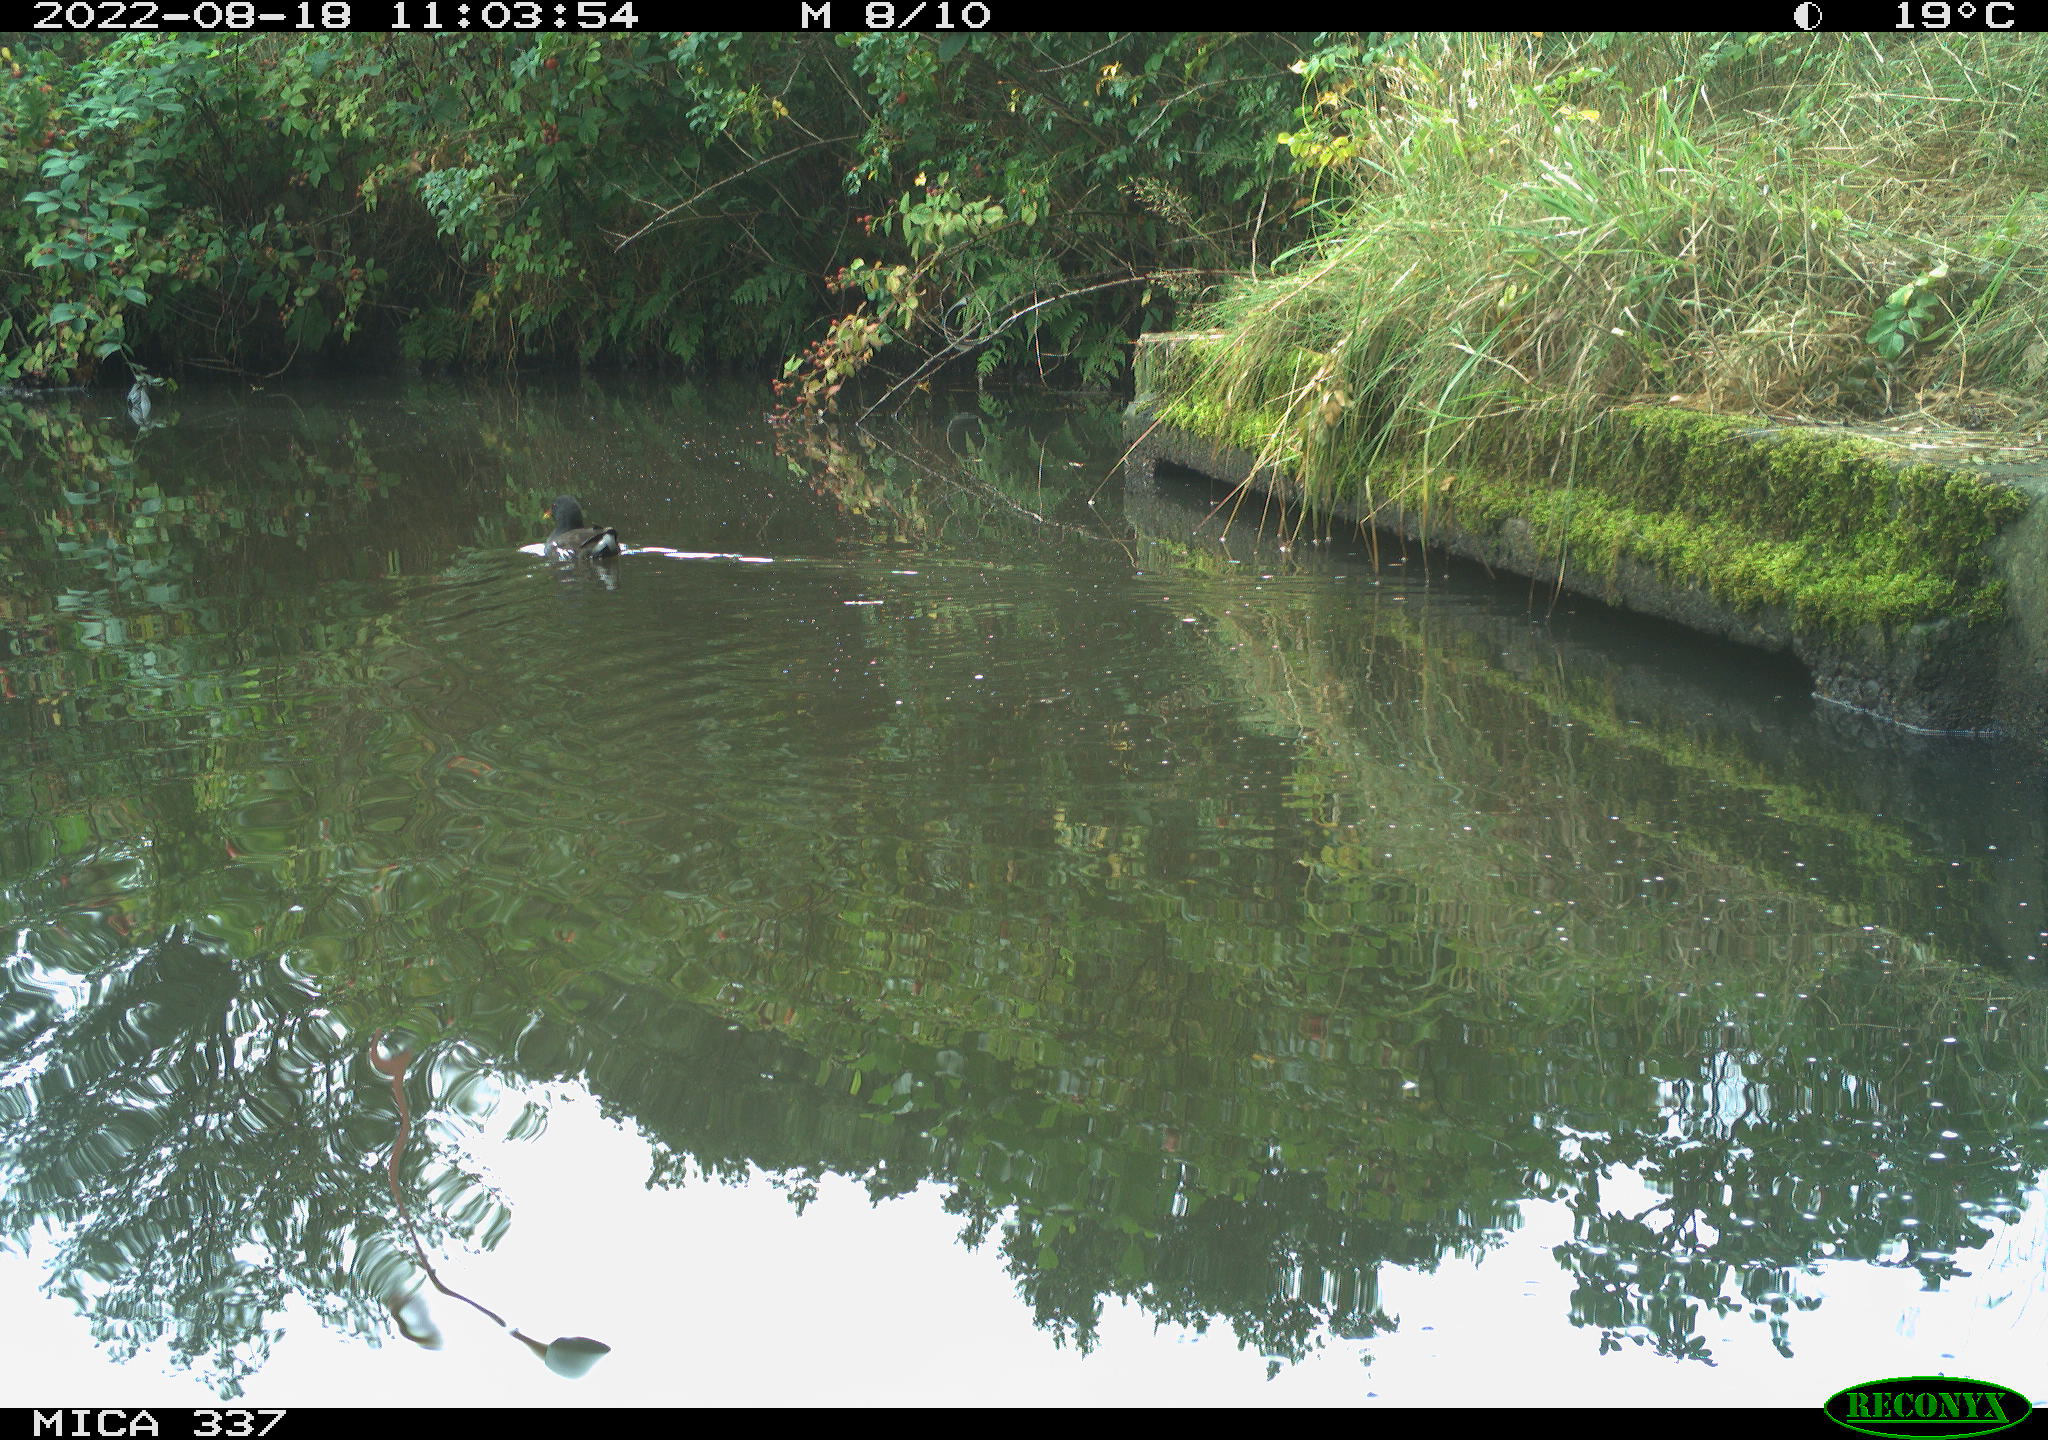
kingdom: Animalia
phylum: Chordata
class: Aves
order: Gruiformes
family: Rallidae
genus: Gallinula
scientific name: Gallinula chloropus
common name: Common moorhen
